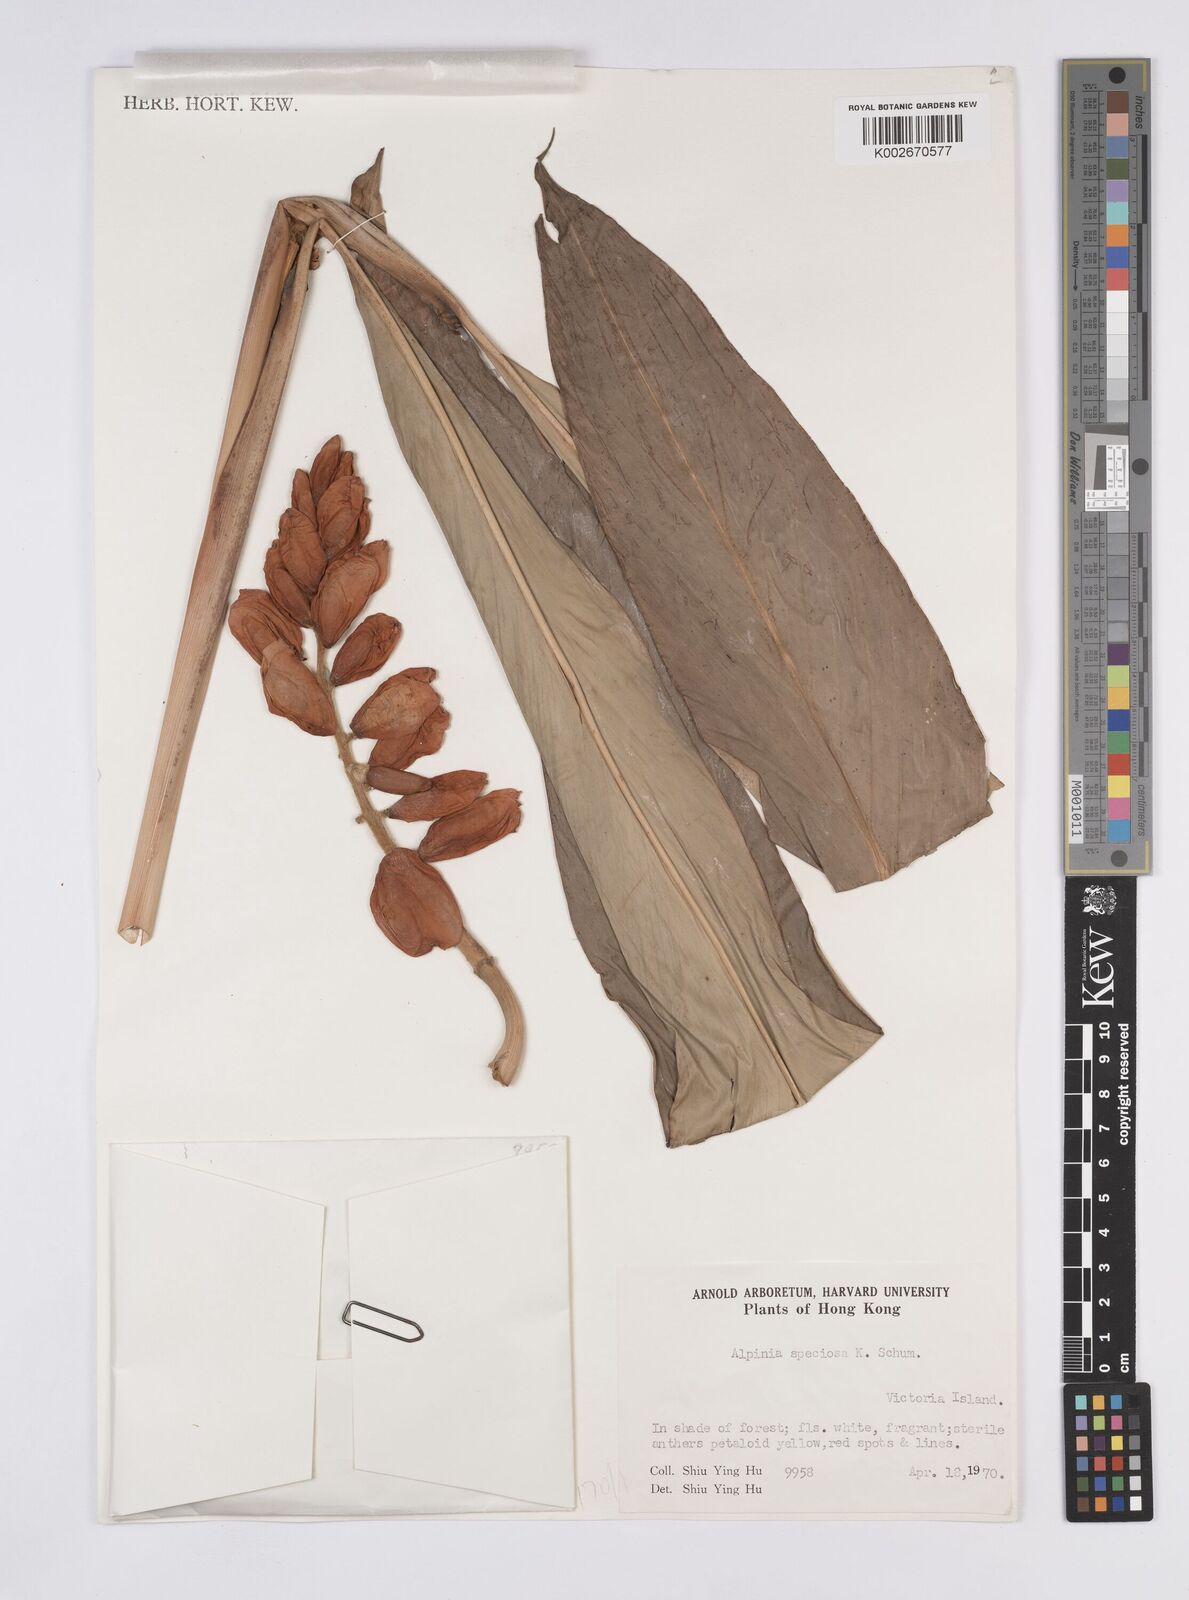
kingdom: Plantae
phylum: Tracheophyta
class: Liliopsida
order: Zingiberales
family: Zingiberaceae
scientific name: Zingiberaceae
